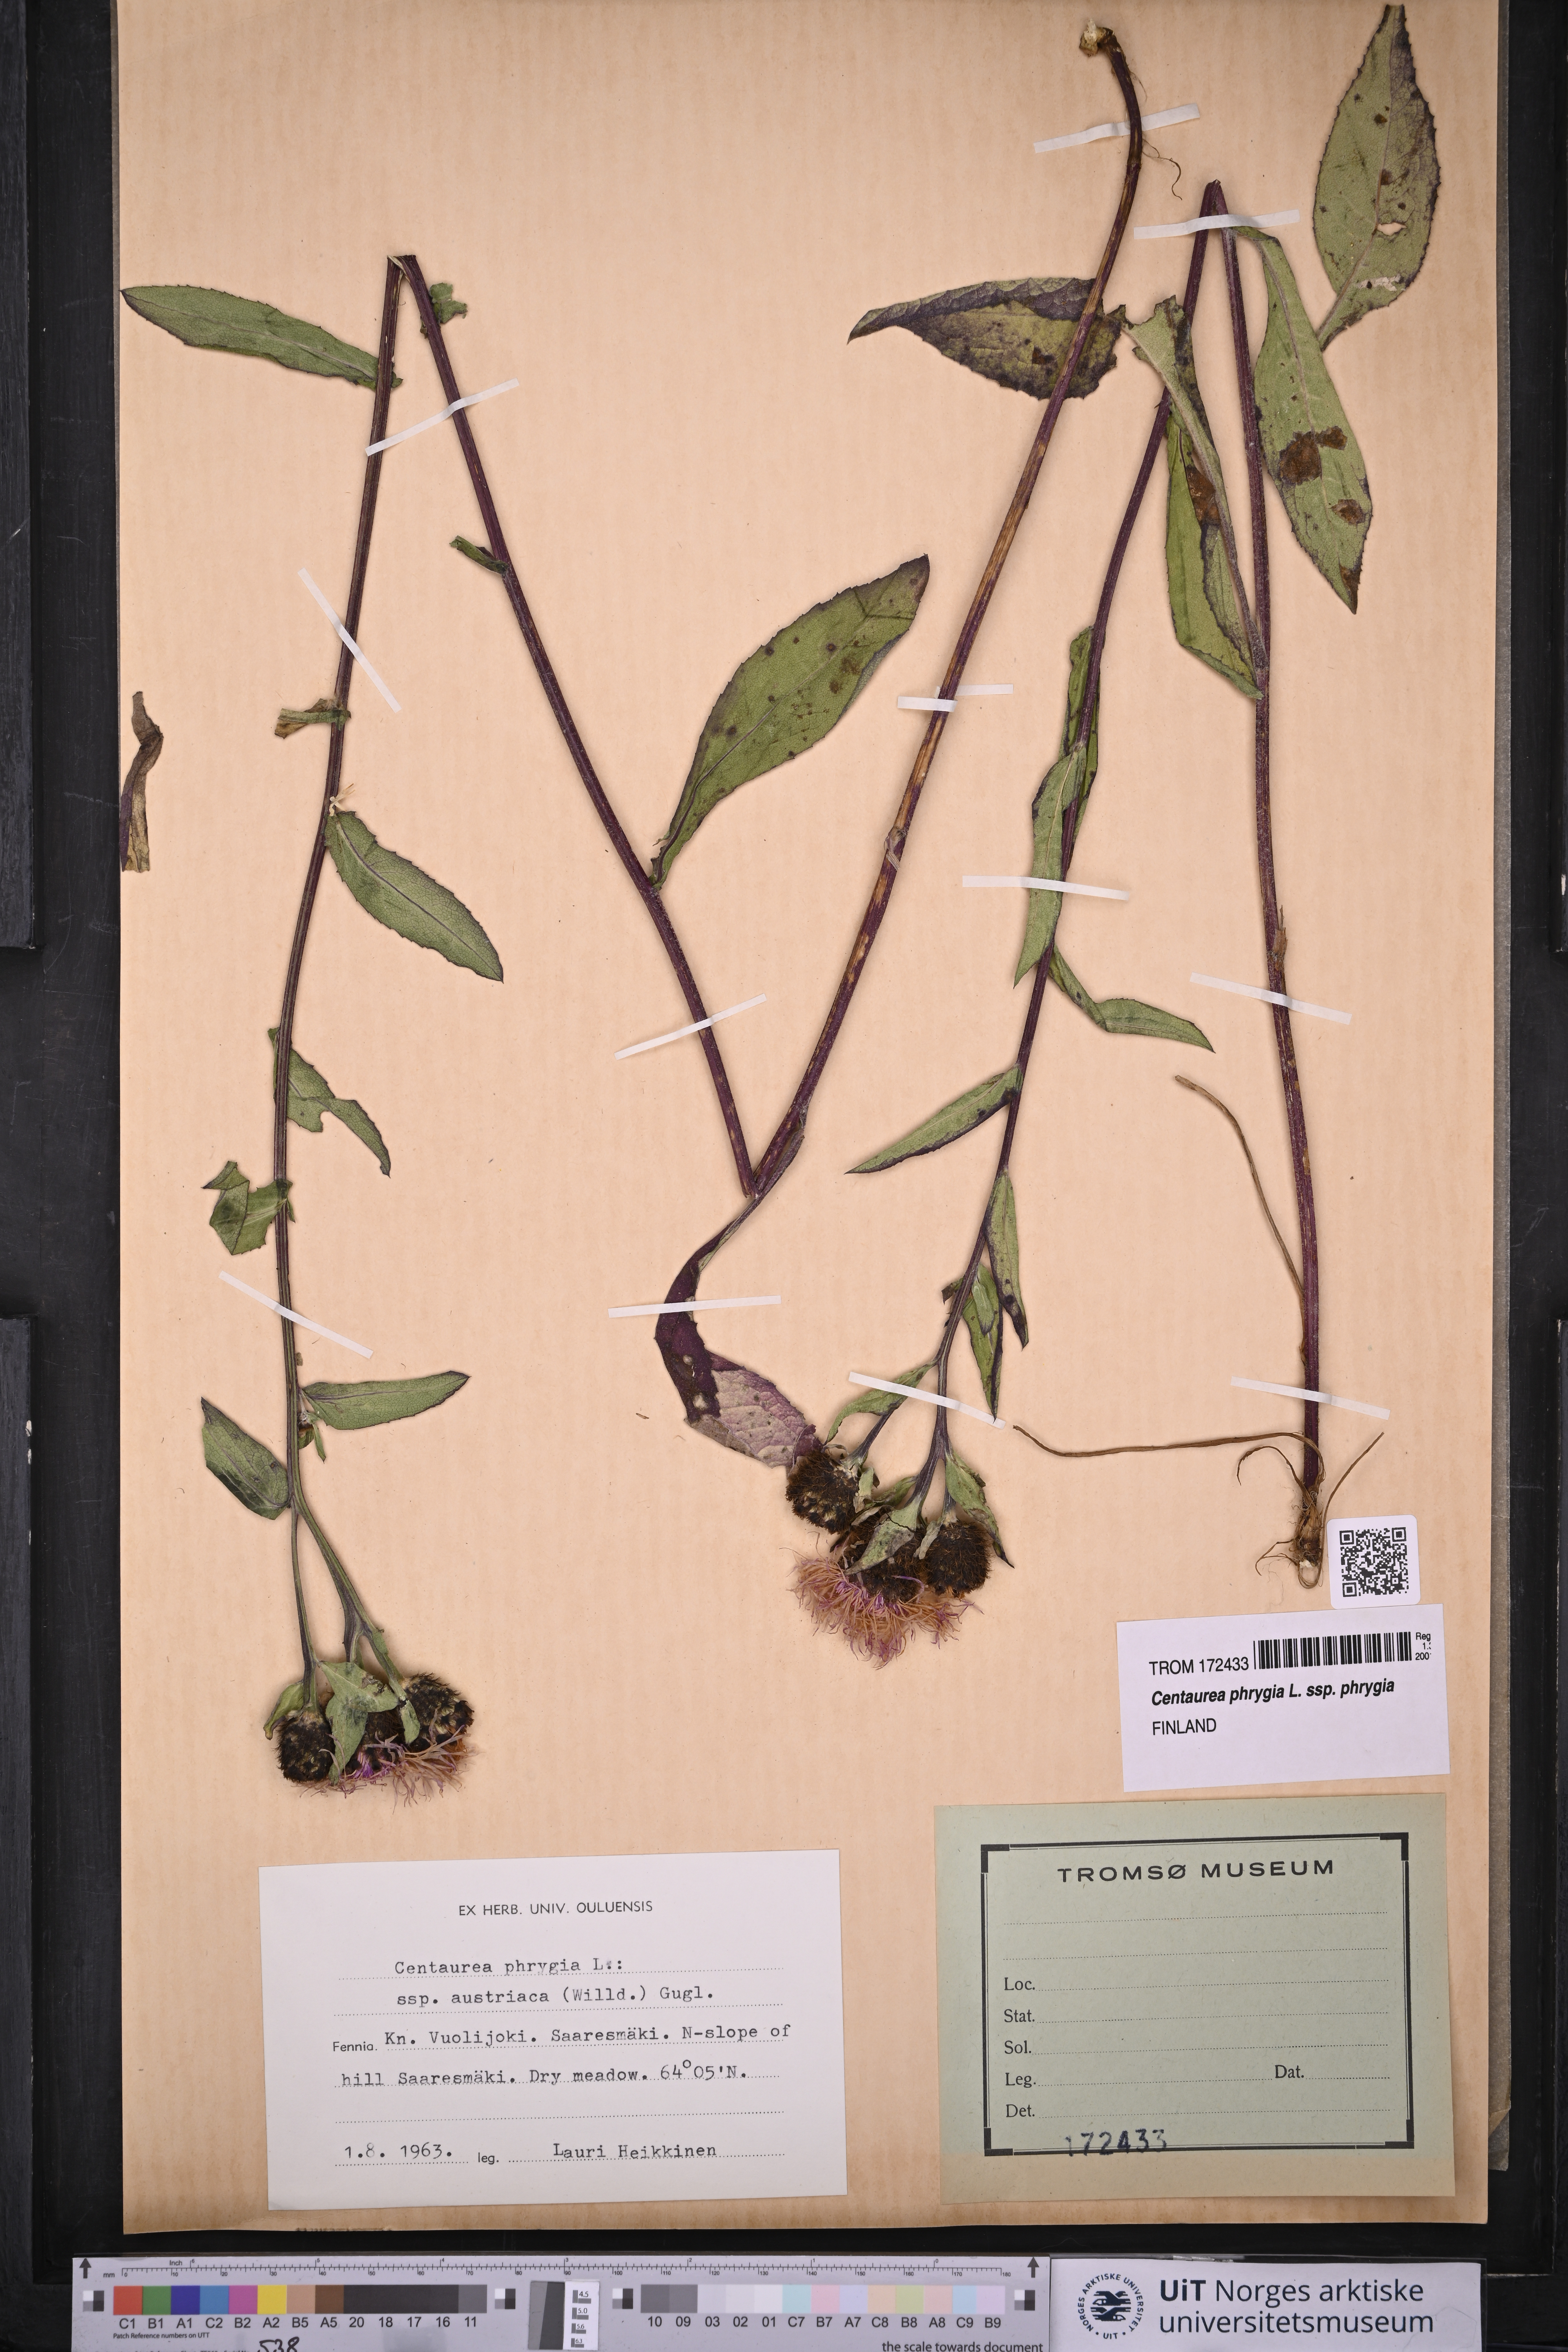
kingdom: Plantae
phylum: Tracheophyta
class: Magnoliopsida
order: Asterales
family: Asteraceae
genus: Centaurea
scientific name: Centaurea phrygia
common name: Wig knapweed
